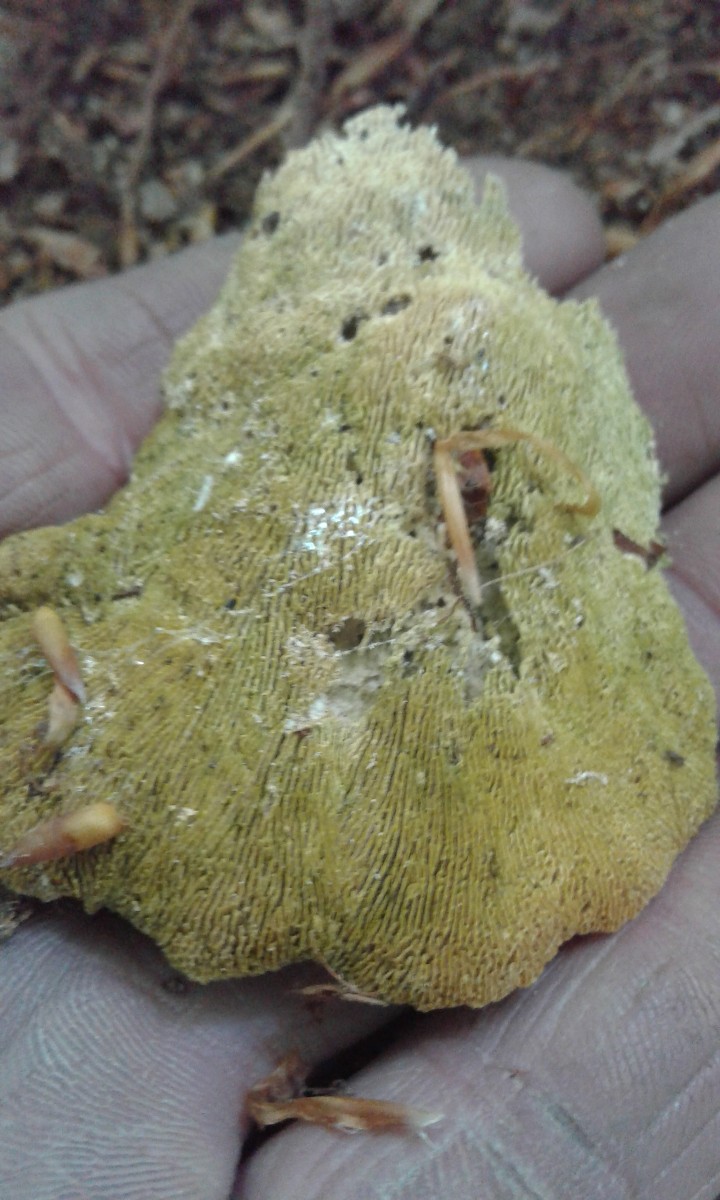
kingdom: Fungi
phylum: Basidiomycota
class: Agaricomycetes
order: Polyporales
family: Polyporaceae
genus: Trametes
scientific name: Trametes
